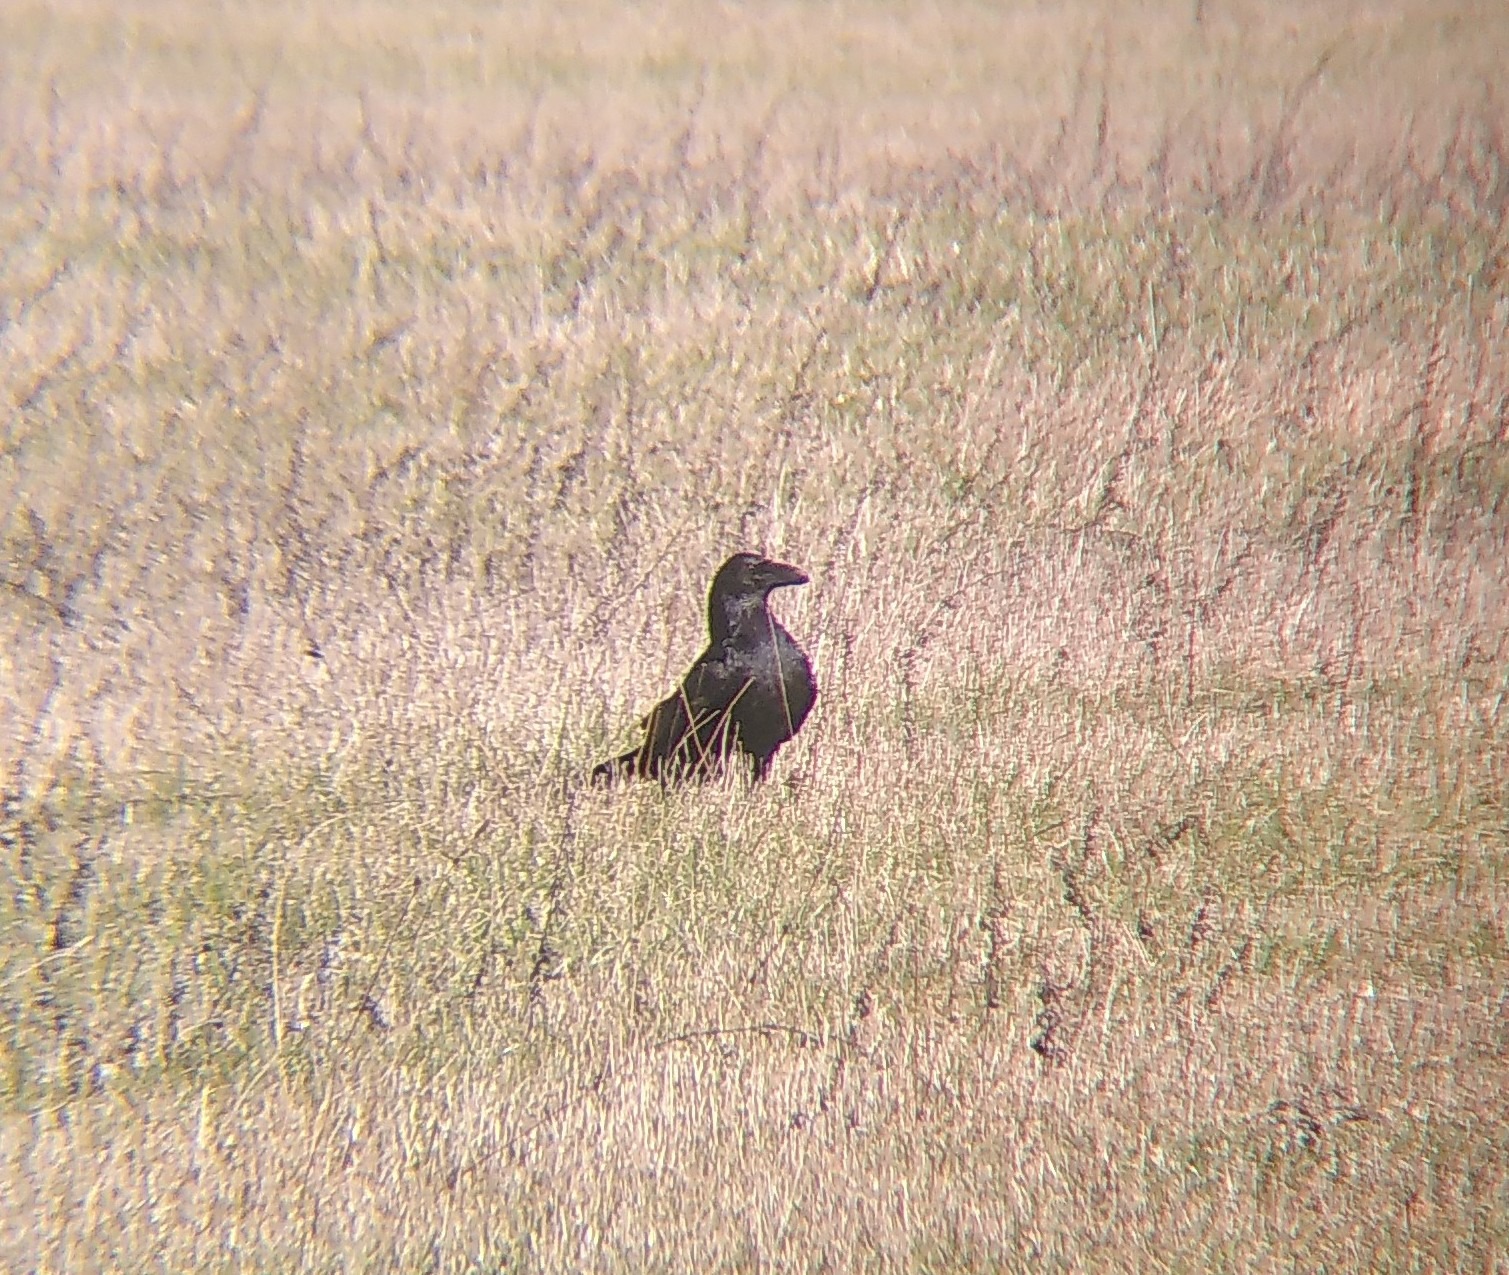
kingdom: Animalia
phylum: Chordata
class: Aves
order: Passeriformes
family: Corvidae
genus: Corvus
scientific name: Corvus corax
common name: Ravn
